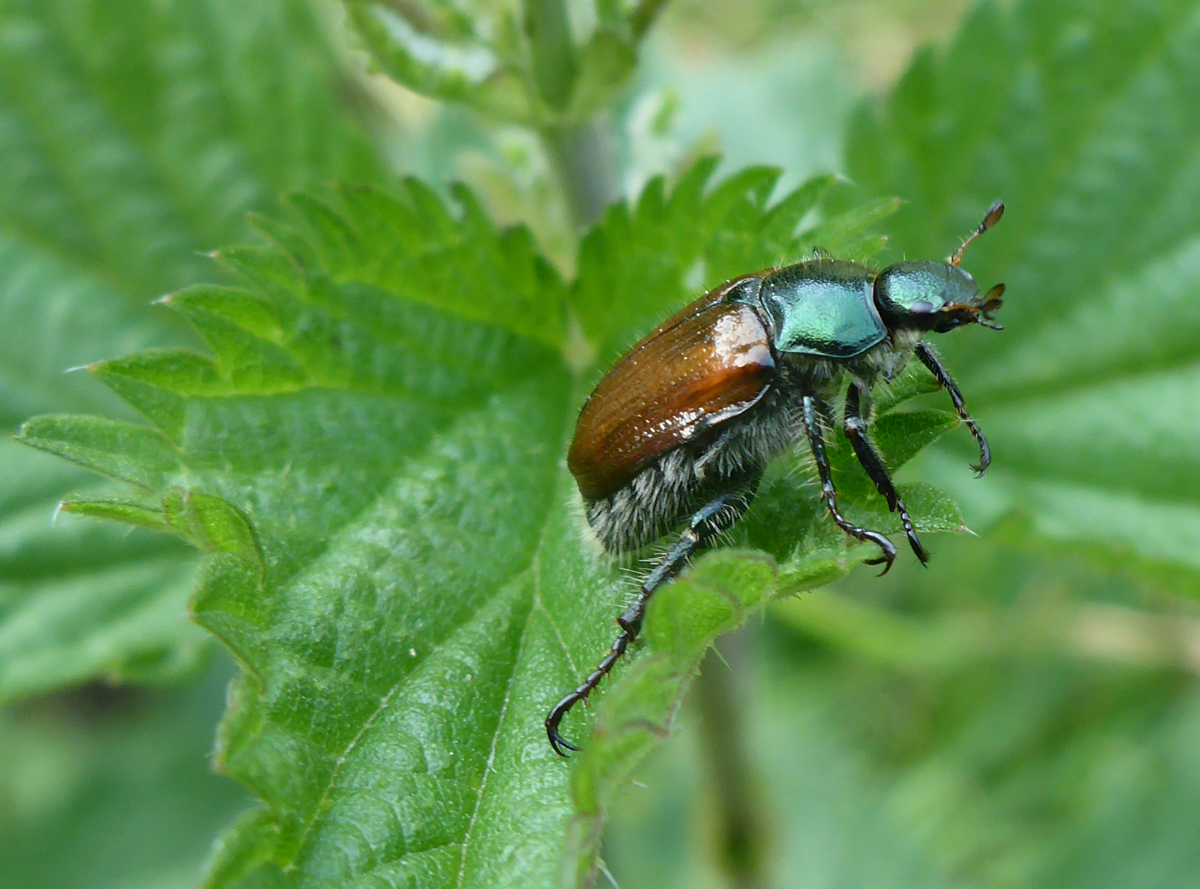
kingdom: Animalia
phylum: Arthropoda
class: Insecta
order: Coleoptera
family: Scarabaeidae
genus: Phyllopertha
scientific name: Phyllopertha horticola
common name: Garden chafer
